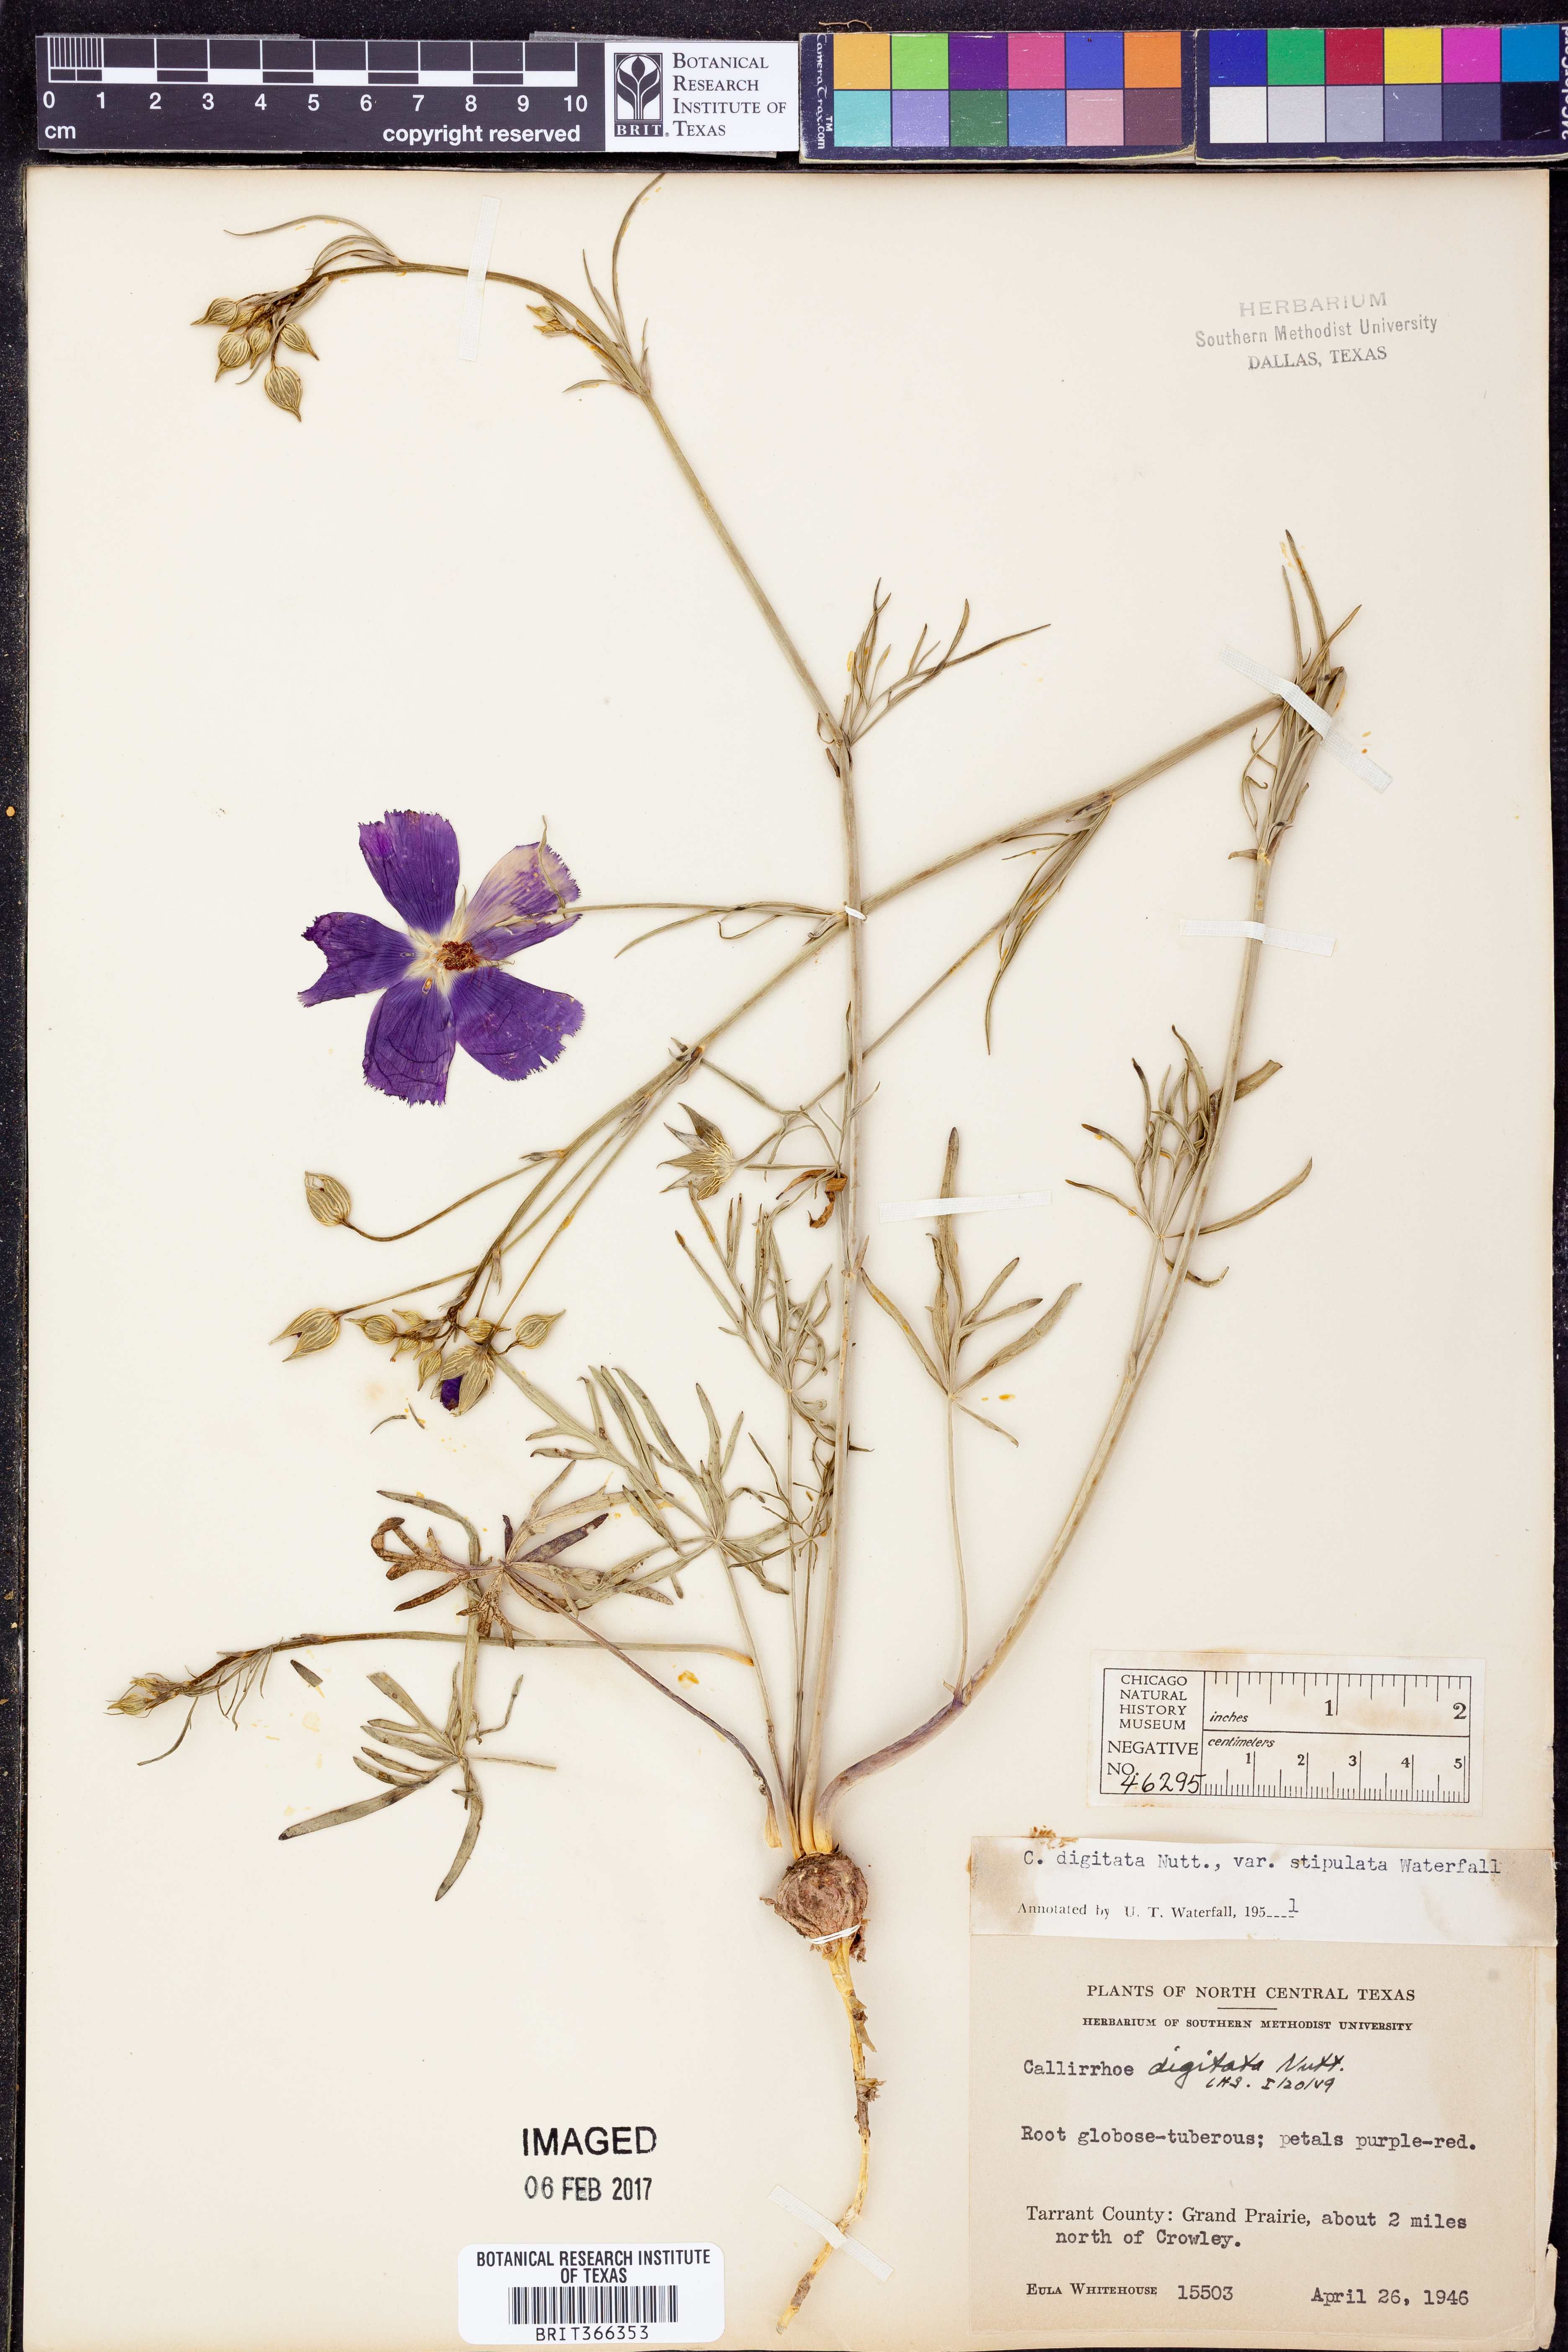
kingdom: Plantae
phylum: Tracheophyta
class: Magnoliopsida
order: Malvales
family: Malvaceae
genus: Callirhoe
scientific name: Callirhoe digitata
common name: Finger poppy-mallow
